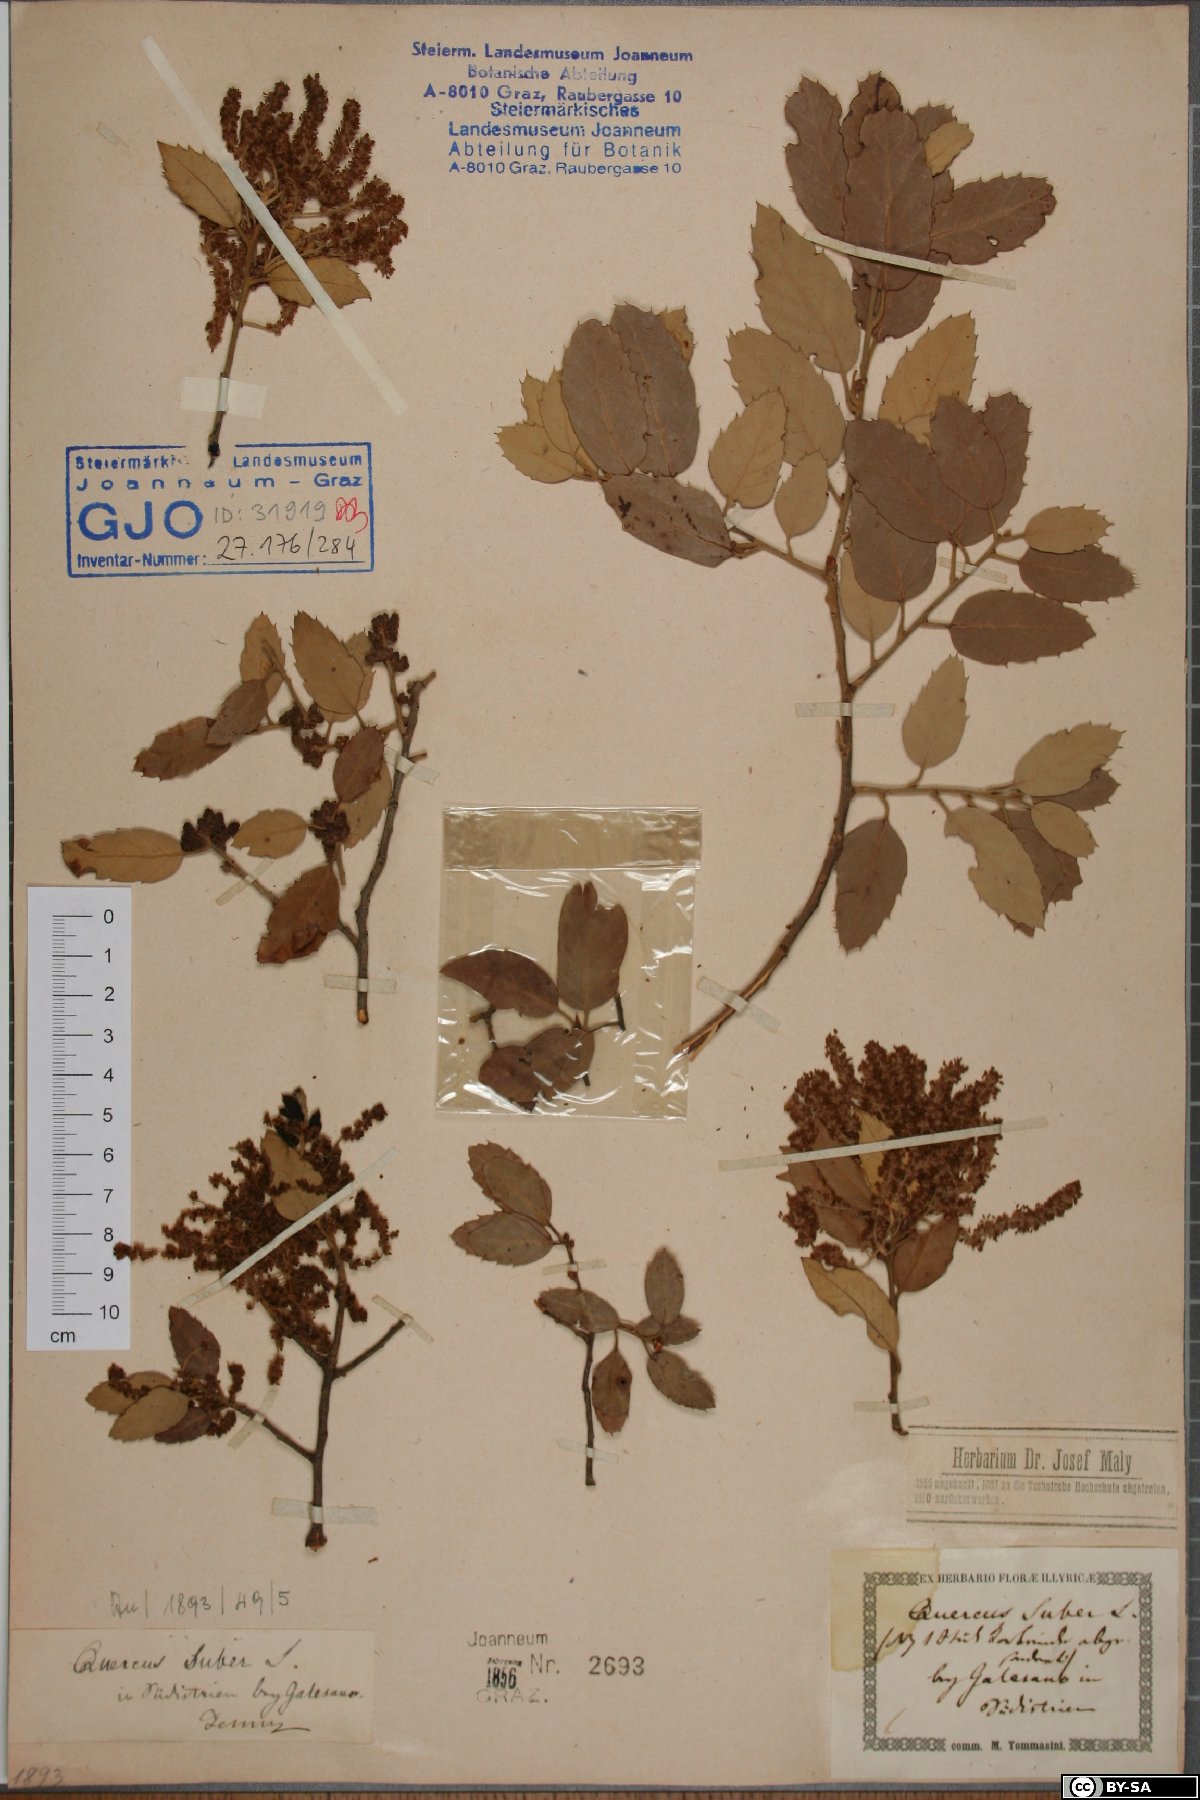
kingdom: Plantae
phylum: Tracheophyta
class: Magnoliopsida
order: Fagales
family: Fagaceae
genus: Quercus
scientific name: Quercus suber
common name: Cork oak
